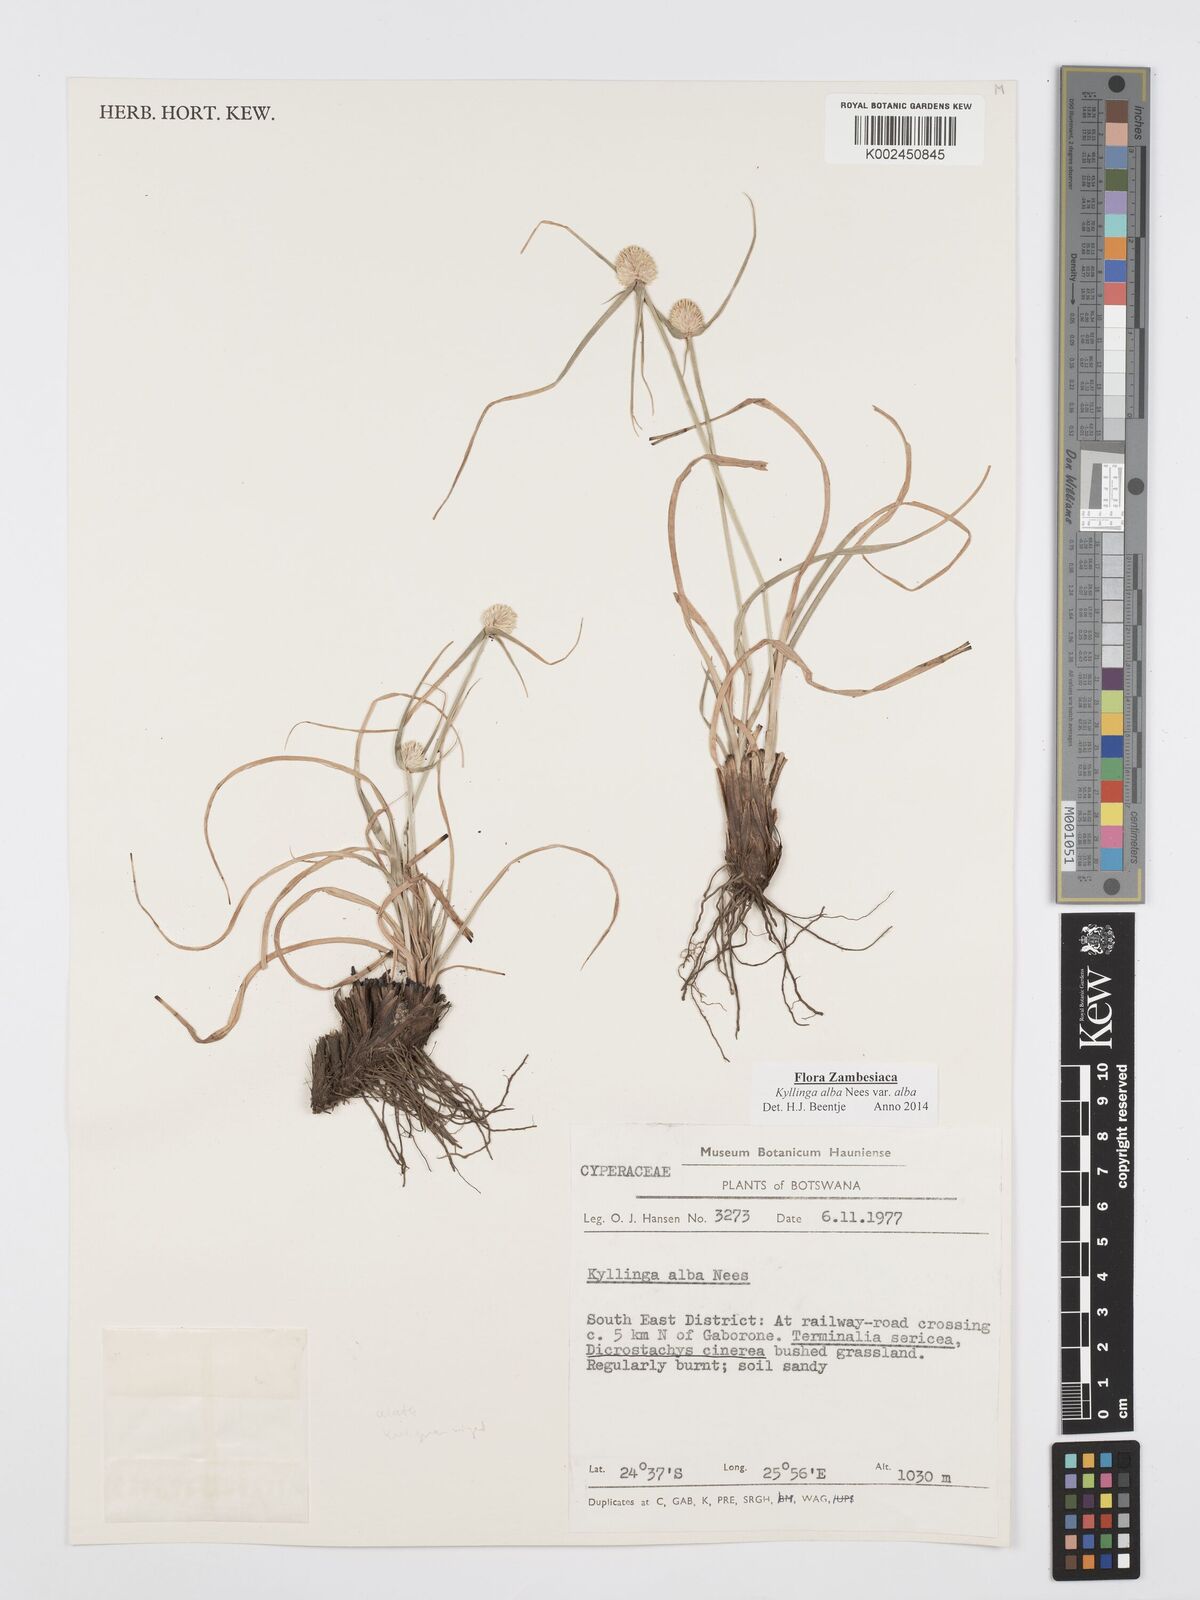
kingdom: Plantae
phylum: Tracheophyta
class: Liliopsida
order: Poales
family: Cyperaceae
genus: Cyperus
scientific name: Cyperus
